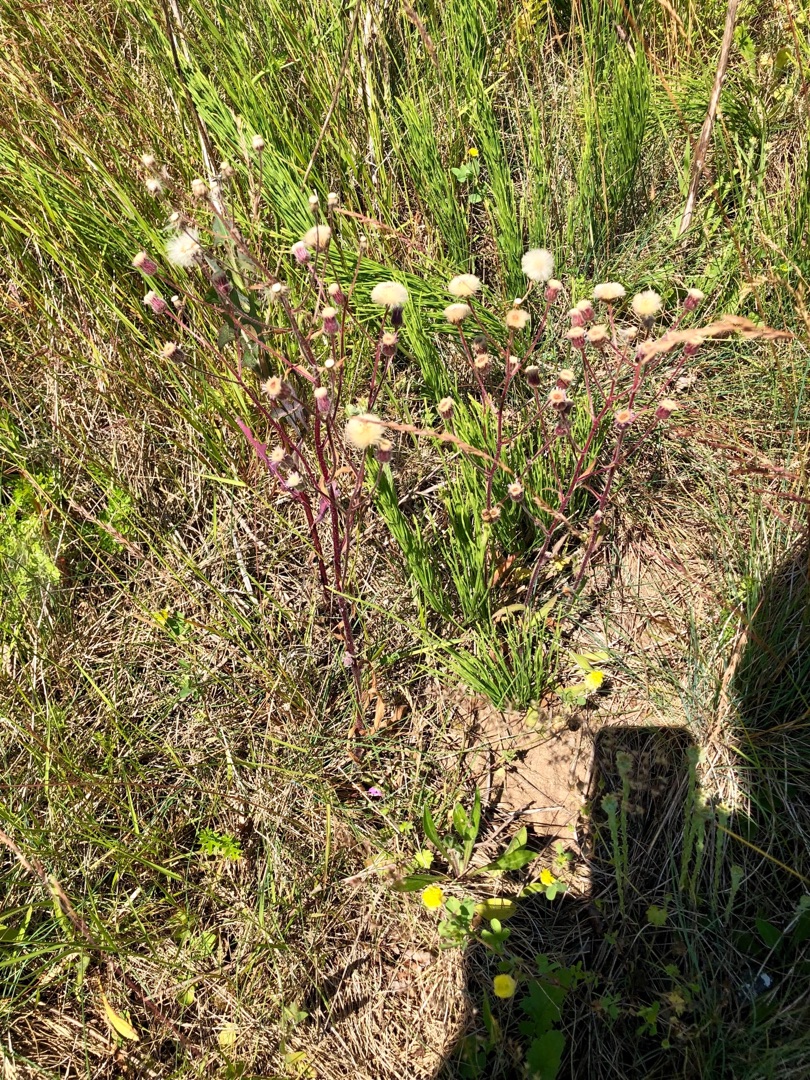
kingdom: Plantae
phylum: Tracheophyta
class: Magnoliopsida
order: Asterales
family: Asteraceae
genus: Erigeron
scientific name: Erigeron acris
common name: Bitter bakkestjerne
